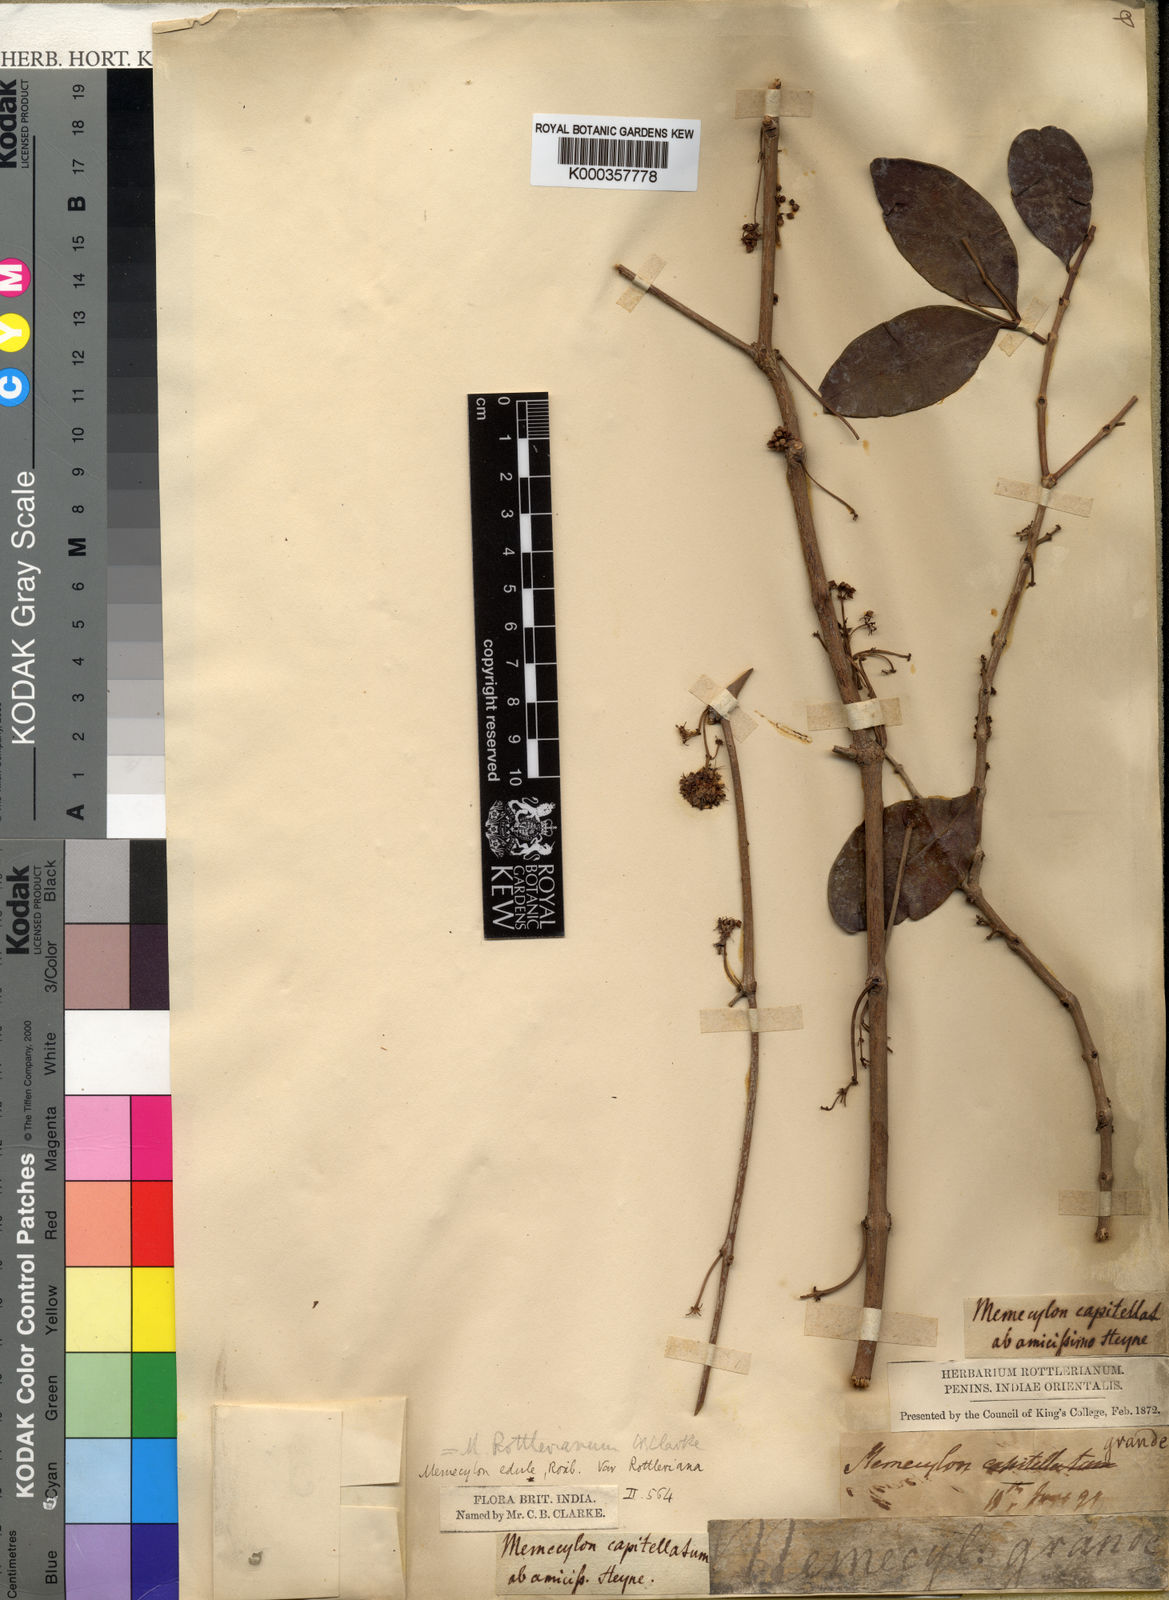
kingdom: Plantae
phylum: Tracheophyta
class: Magnoliopsida
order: Myrtales
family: Melastomataceae
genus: Memecylon
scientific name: Memecylon edule
